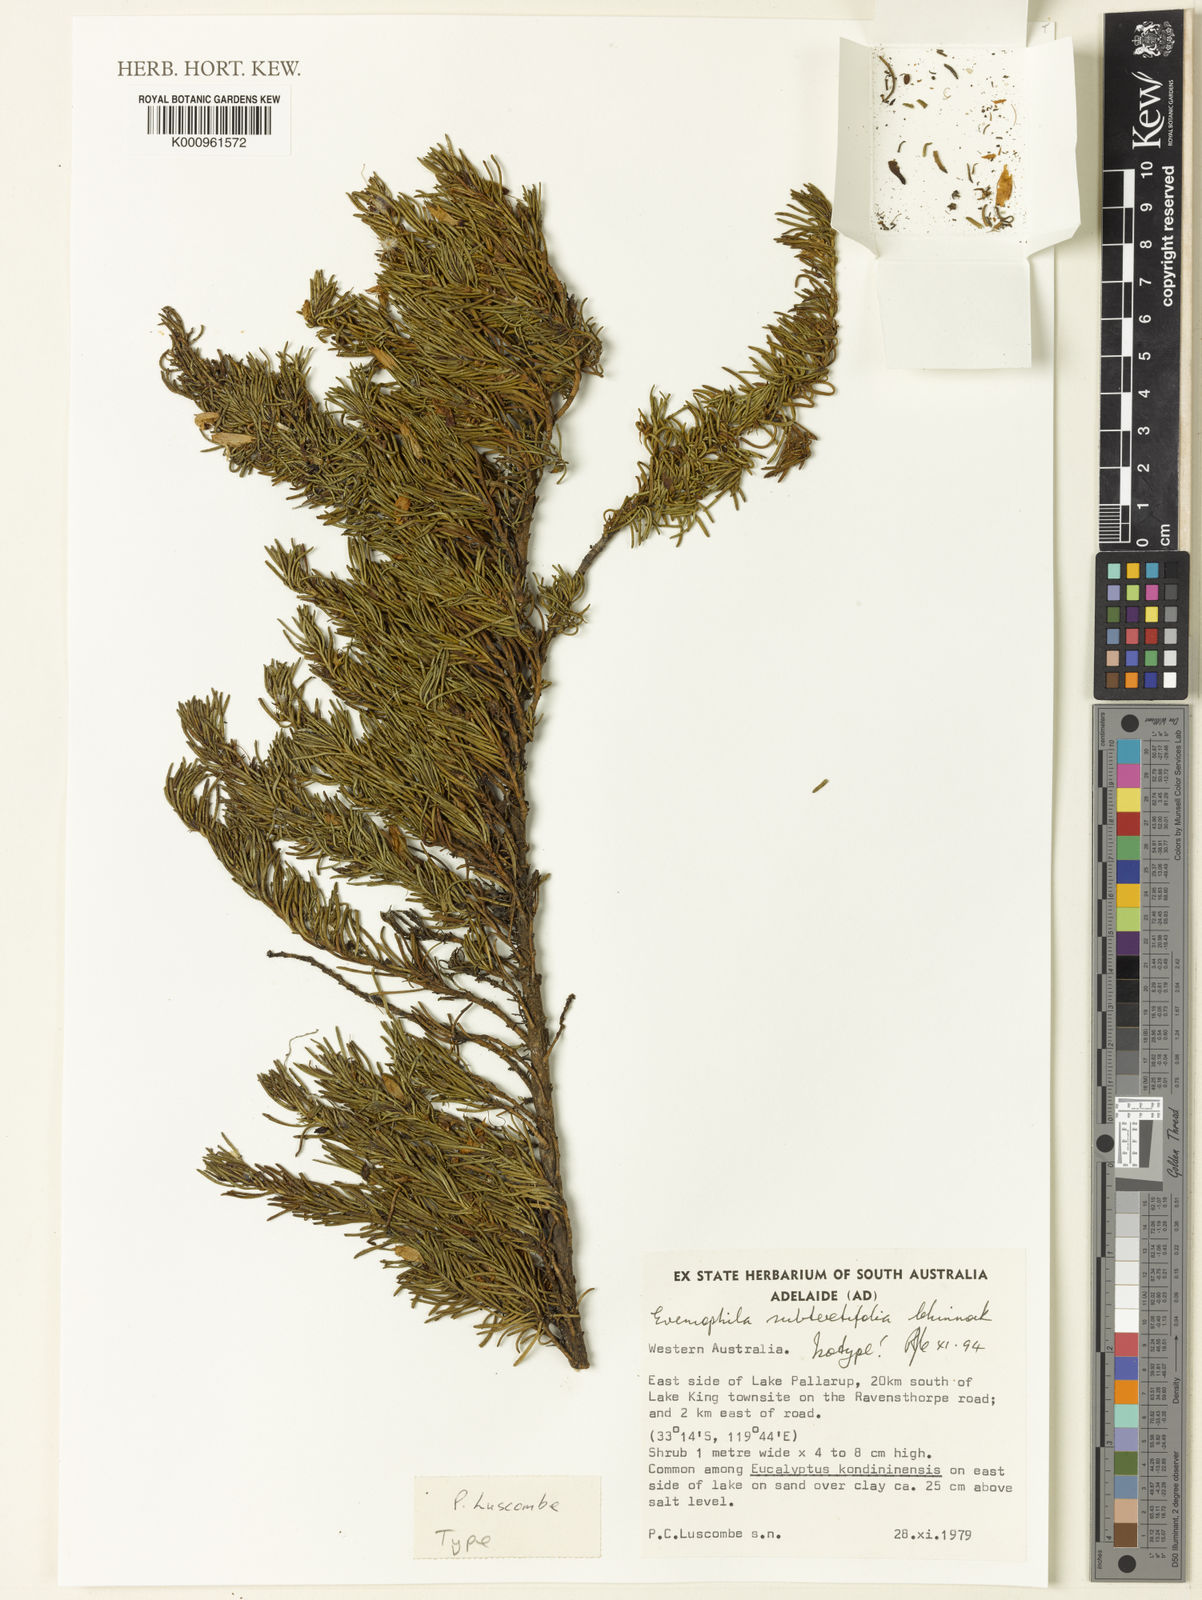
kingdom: Plantae
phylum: Tracheophyta
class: Magnoliopsida
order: Lamiales
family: Scrophulariaceae
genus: Eremophila
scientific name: Eremophila subteretifolia
